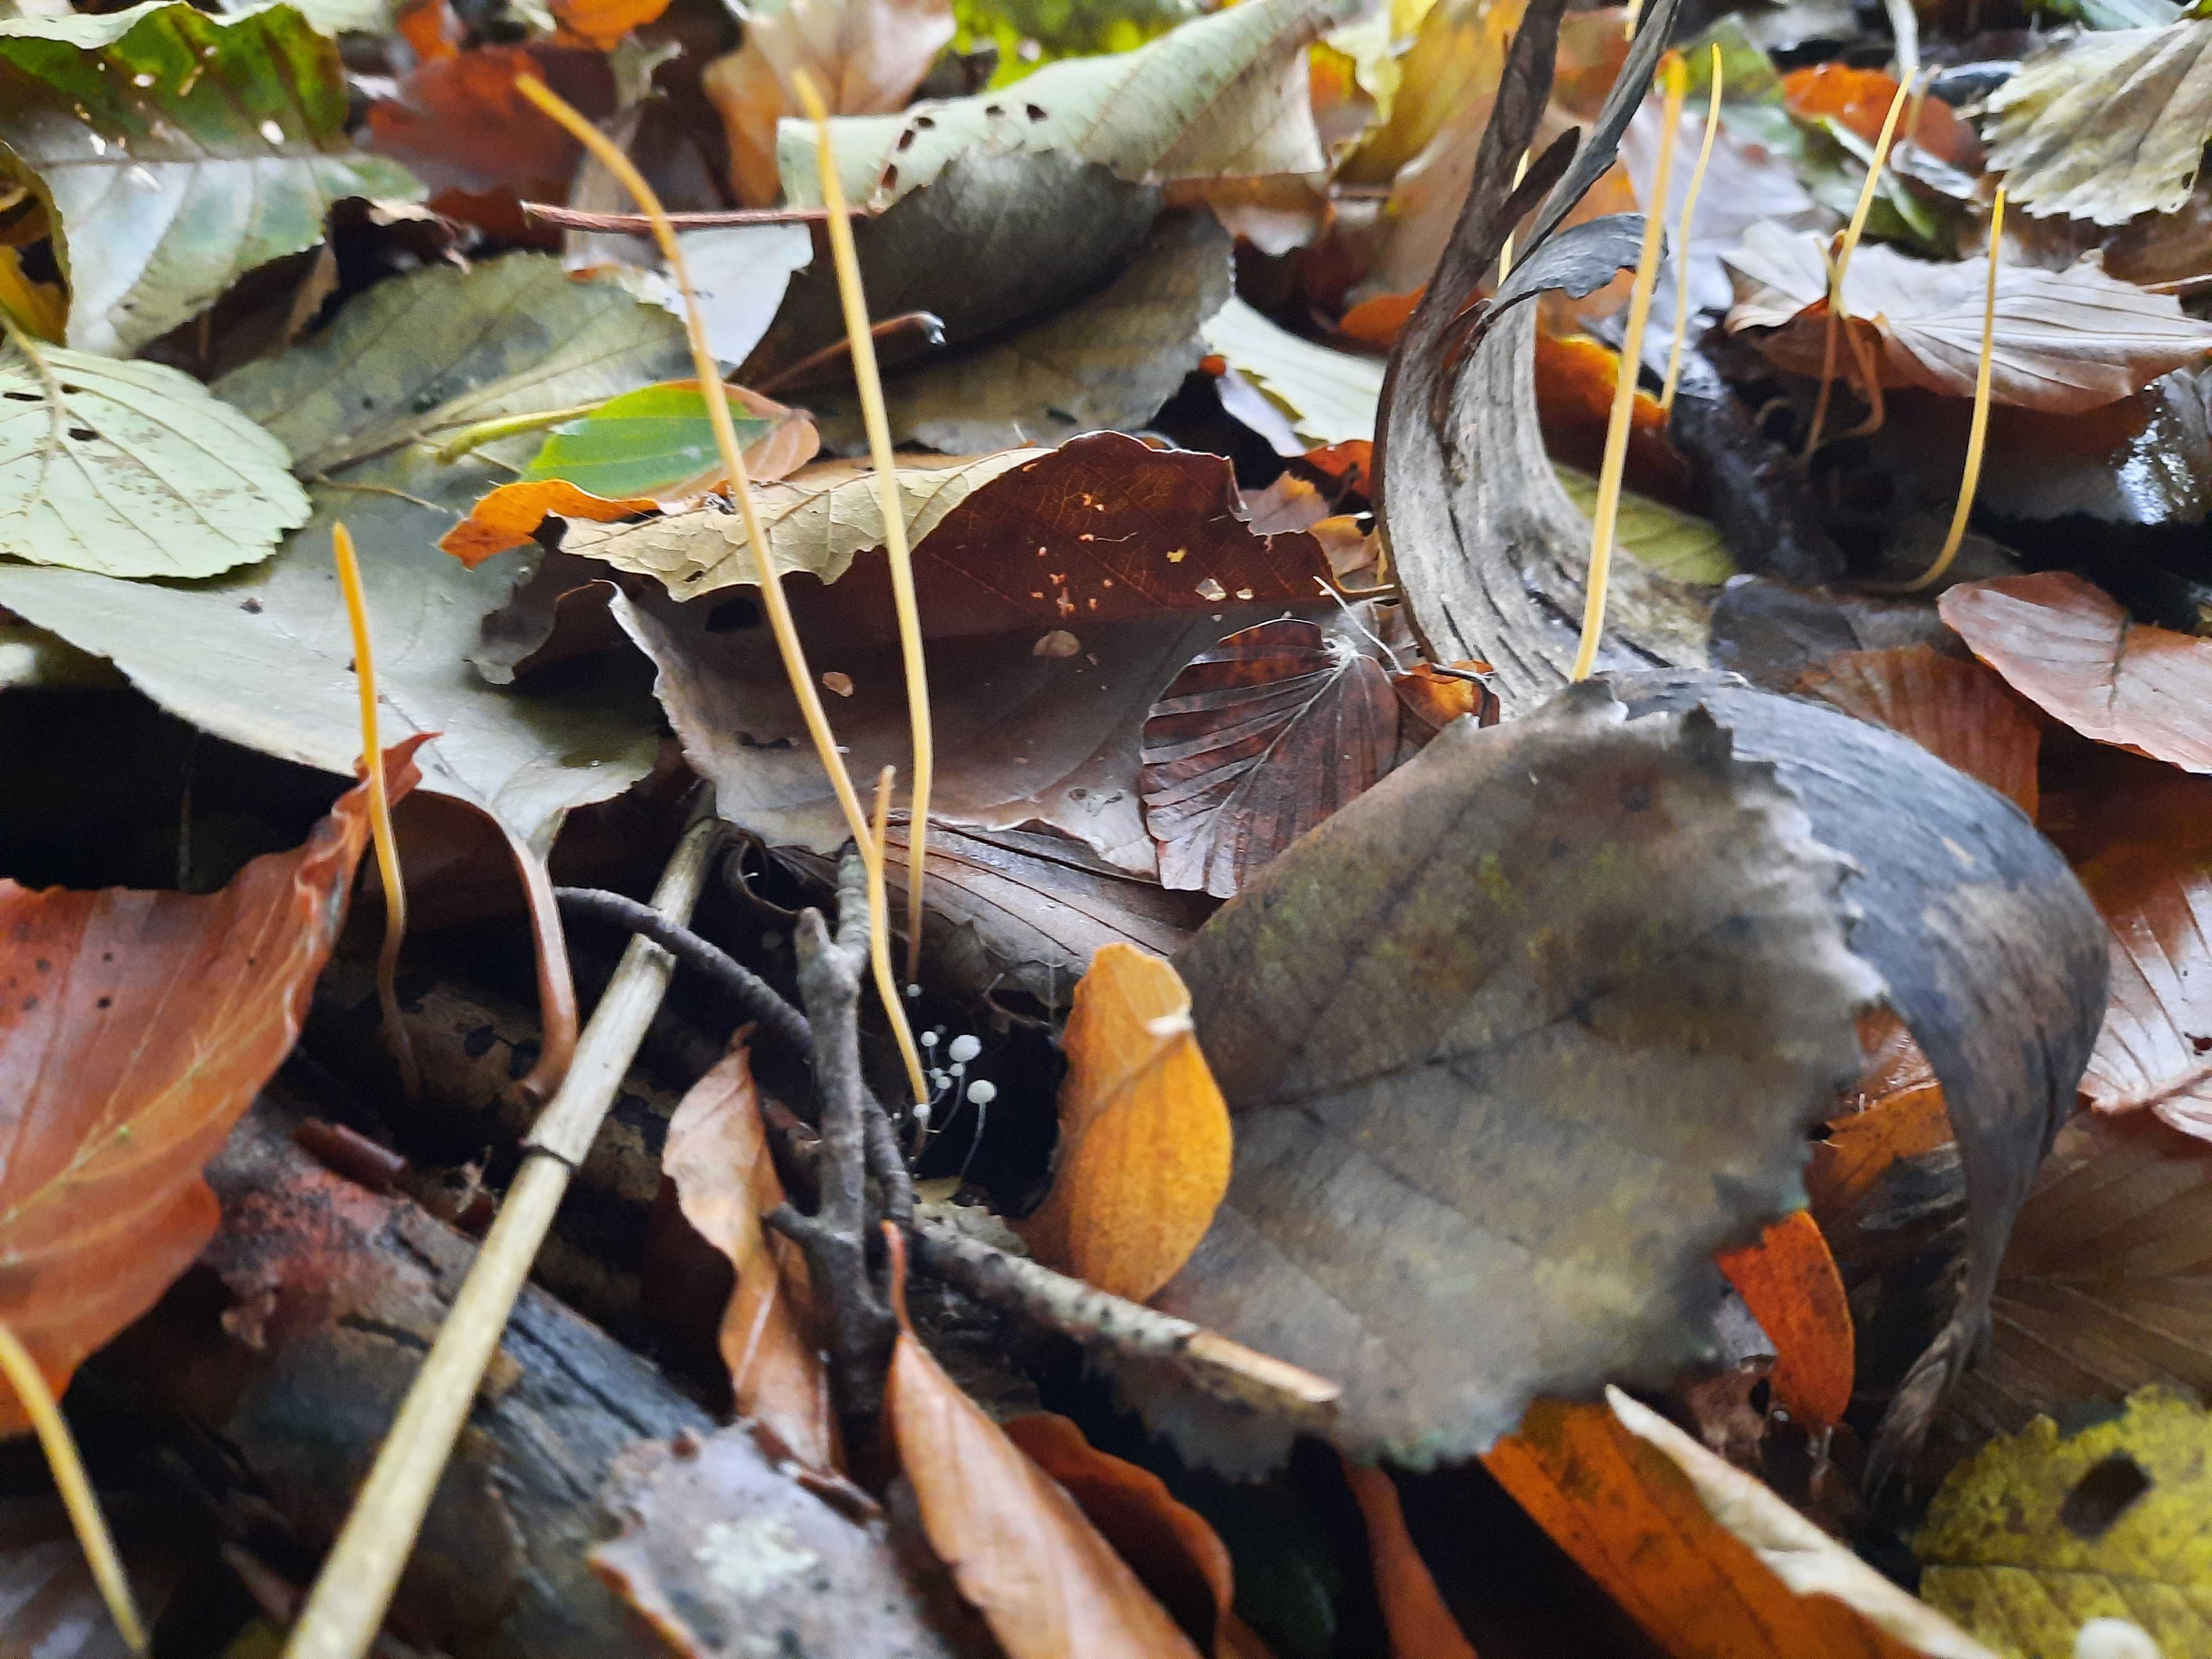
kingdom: Fungi
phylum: Basidiomycota
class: Agaricomycetes
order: Agaricales
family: Typhulaceae
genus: Typhula
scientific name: Typhula juncea
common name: trådagtig rørkølle
